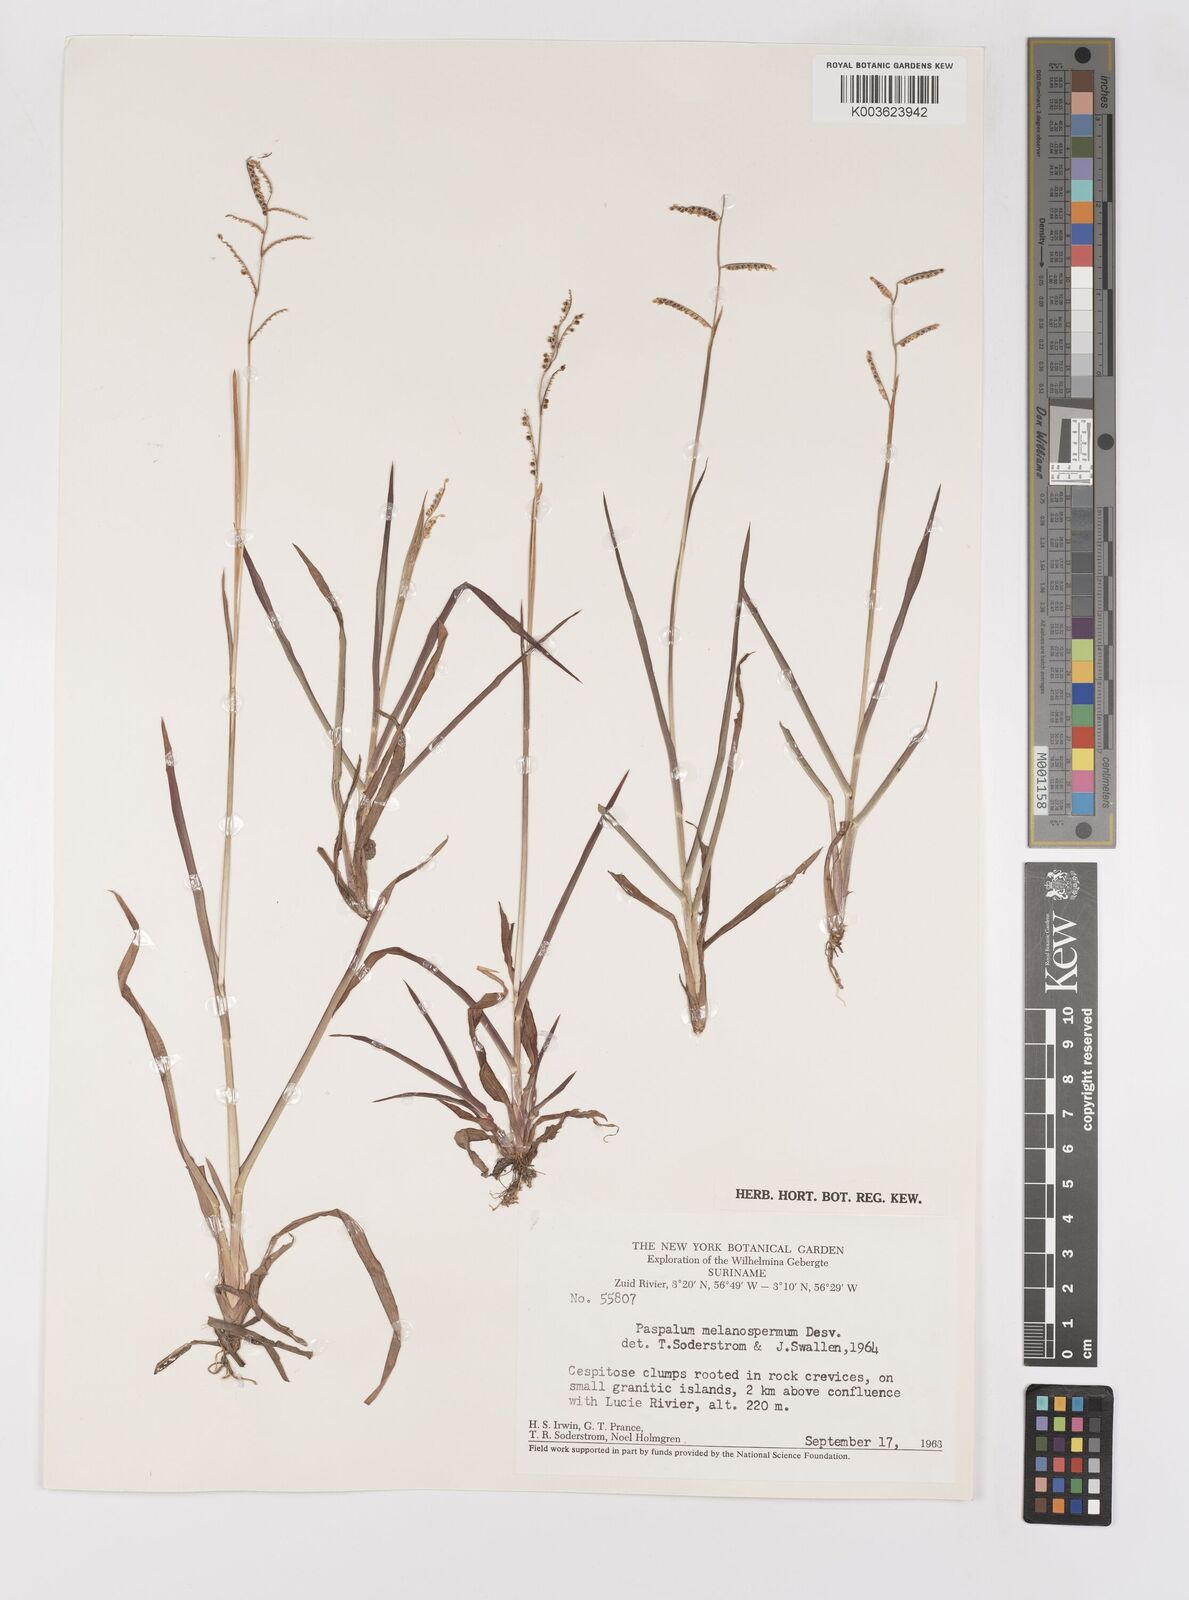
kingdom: Plantae
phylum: Tracheophyta
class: Liliopsida
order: Poales
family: Poaceae
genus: Paspalum
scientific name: Paspalum melanospermum
